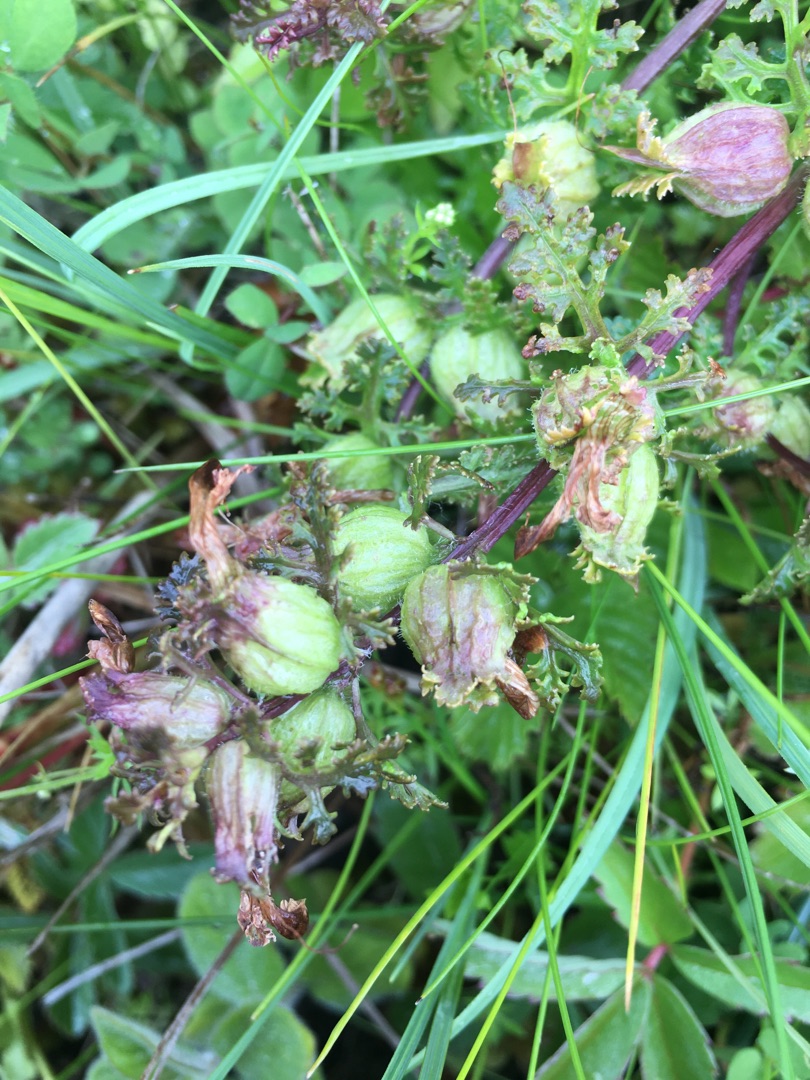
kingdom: Plantae
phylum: Tracheophyta
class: Magnoliopsida
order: Lamiales
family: Orobanchaceae
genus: Pedicularis
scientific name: Pedicularis palustris
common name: Eng-troldurt
